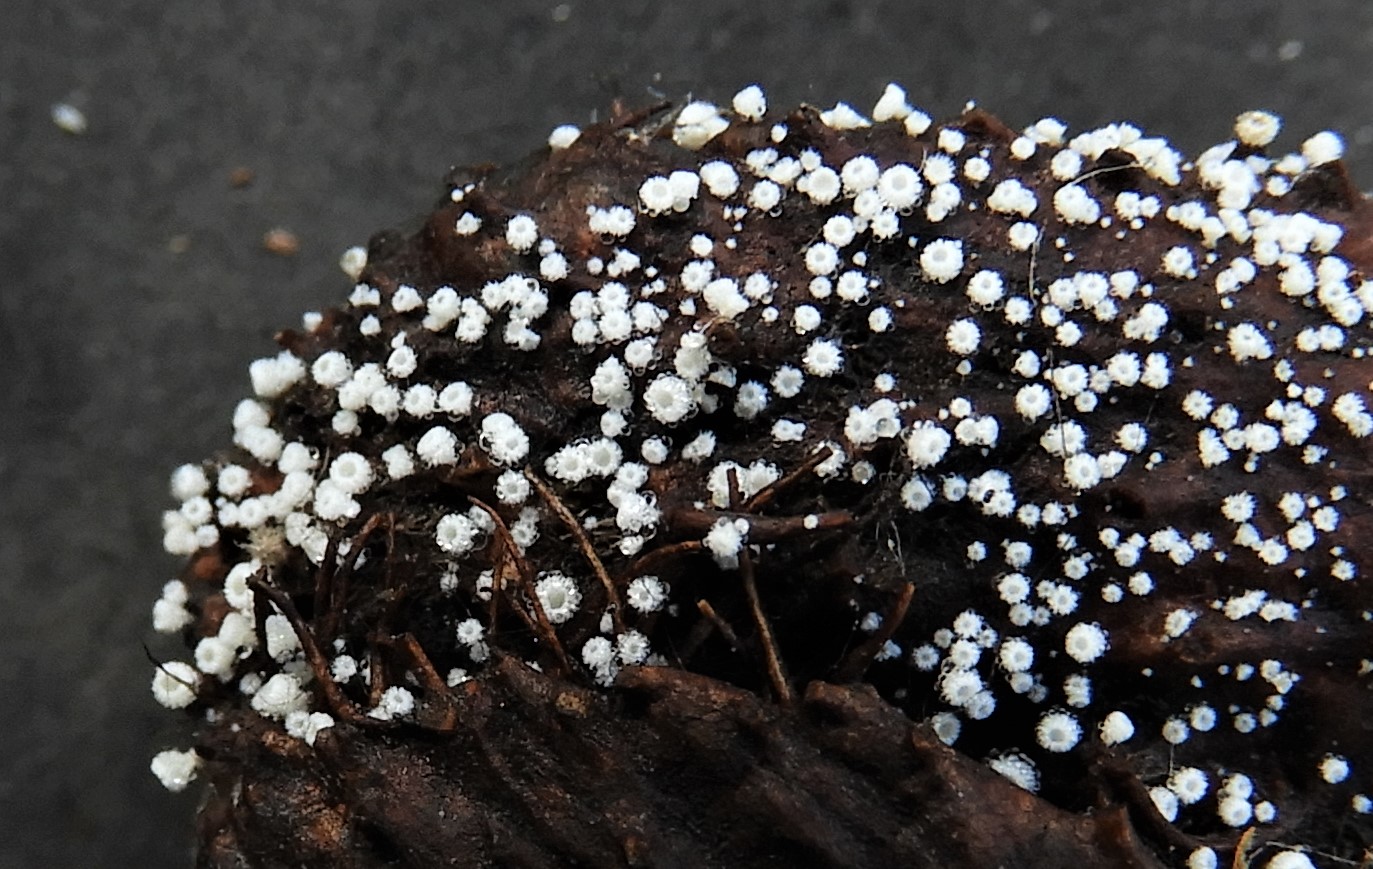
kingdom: Fungi
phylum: Ascomycota
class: Leotiomycetes
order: Helotiales
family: Lachnaceae
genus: Lachnum
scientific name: Lachnum virgineum
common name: jomfru-frynseskive
